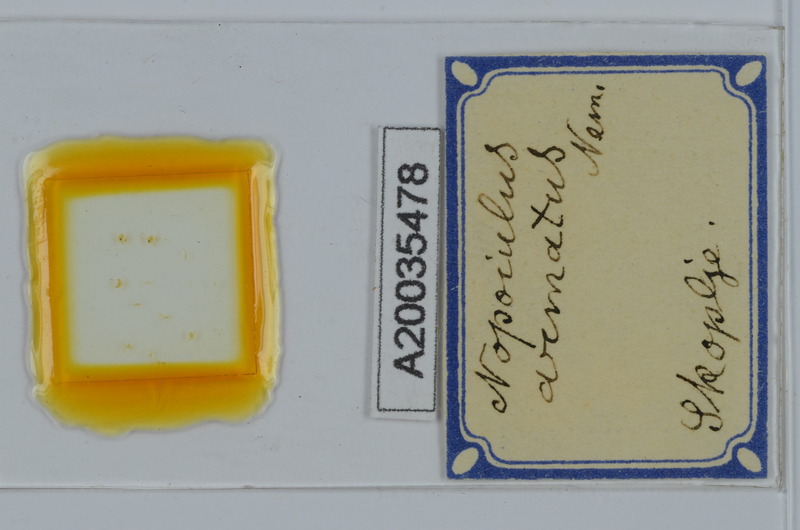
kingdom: Animalia
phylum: Arthropoda
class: Diplopoda
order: Julida
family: Blaniulidae
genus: Nopoiulus
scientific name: Nopoiulus kochii
